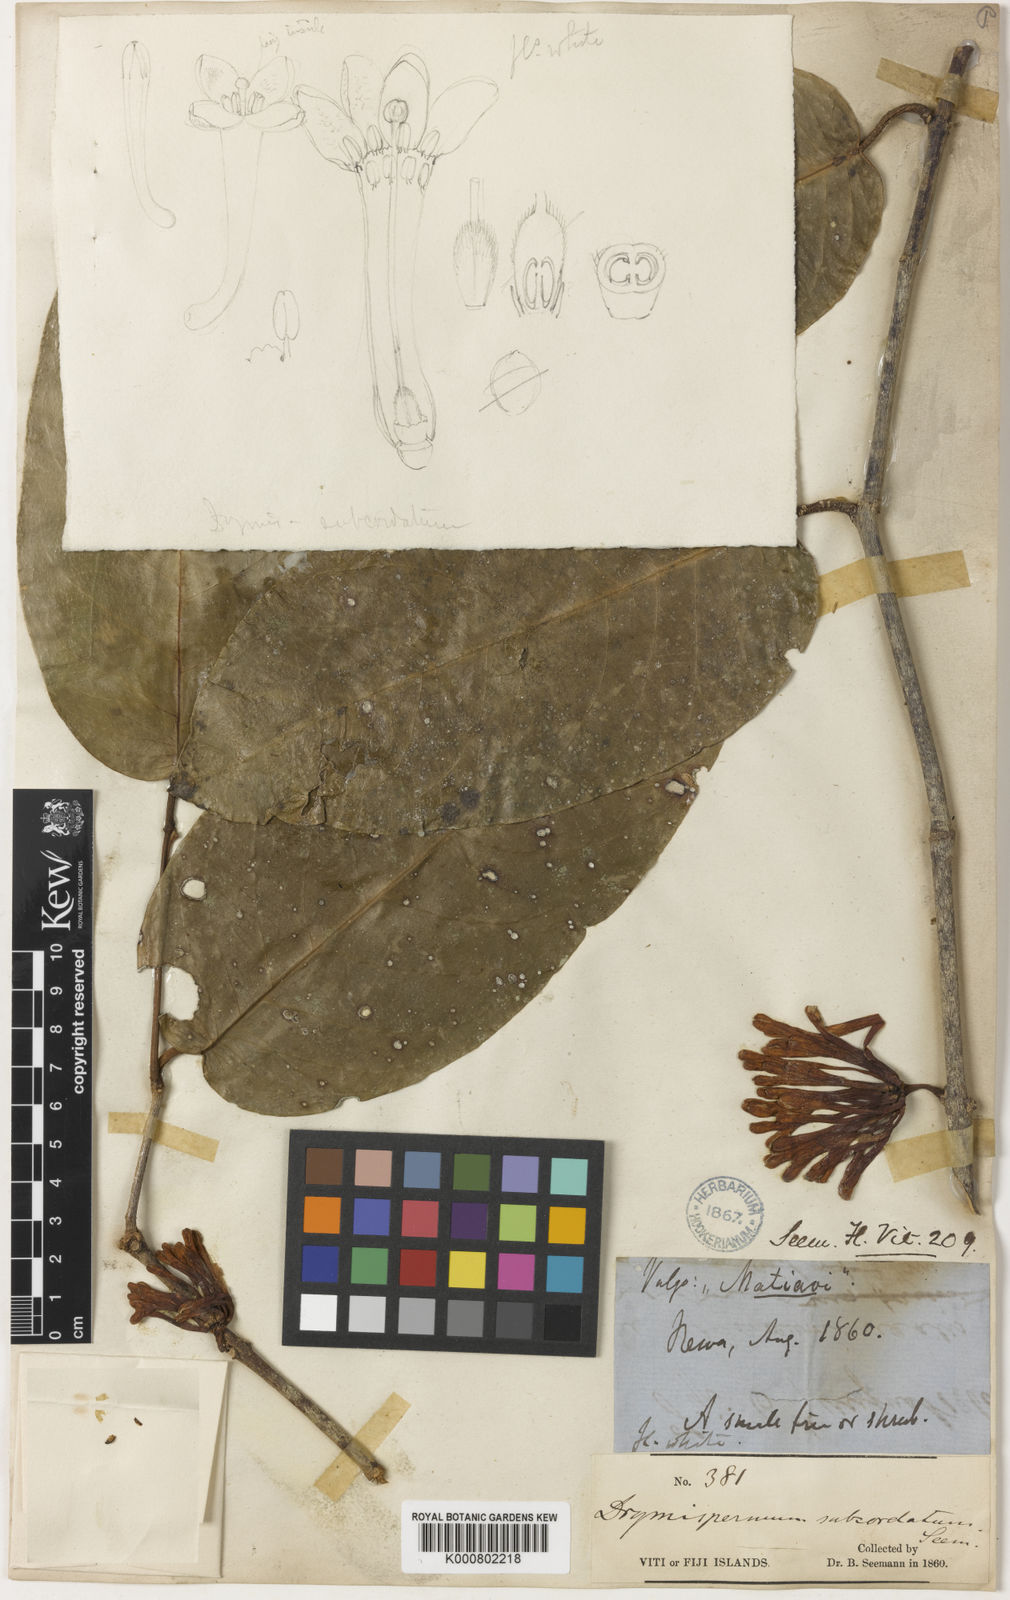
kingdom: Plantae
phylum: Tracheophyta
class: Magnoliopsida
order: Malvales
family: Thymelaeaceae
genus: Phaleria
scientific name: Phaleria acuminata
